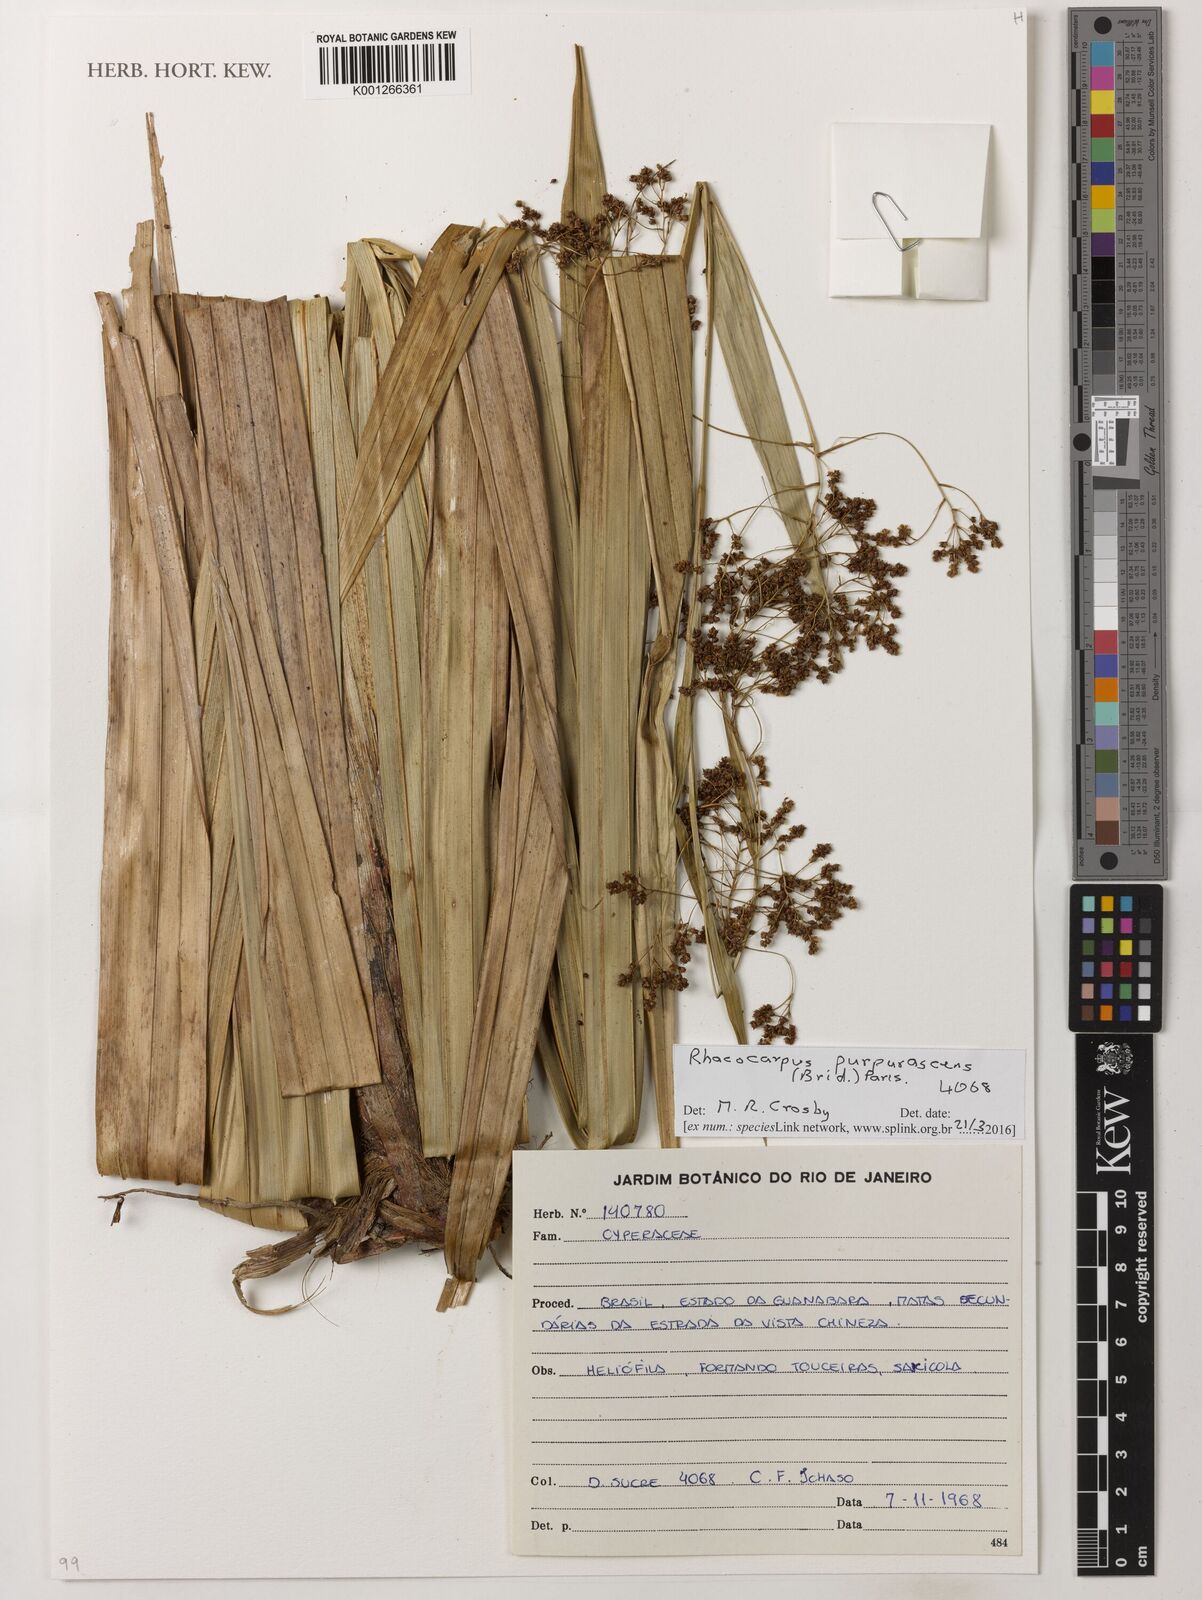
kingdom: Plantae
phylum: Tracheophyta
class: Liliopsida
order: Poales
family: Cyperaceae
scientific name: Cyperaceae
